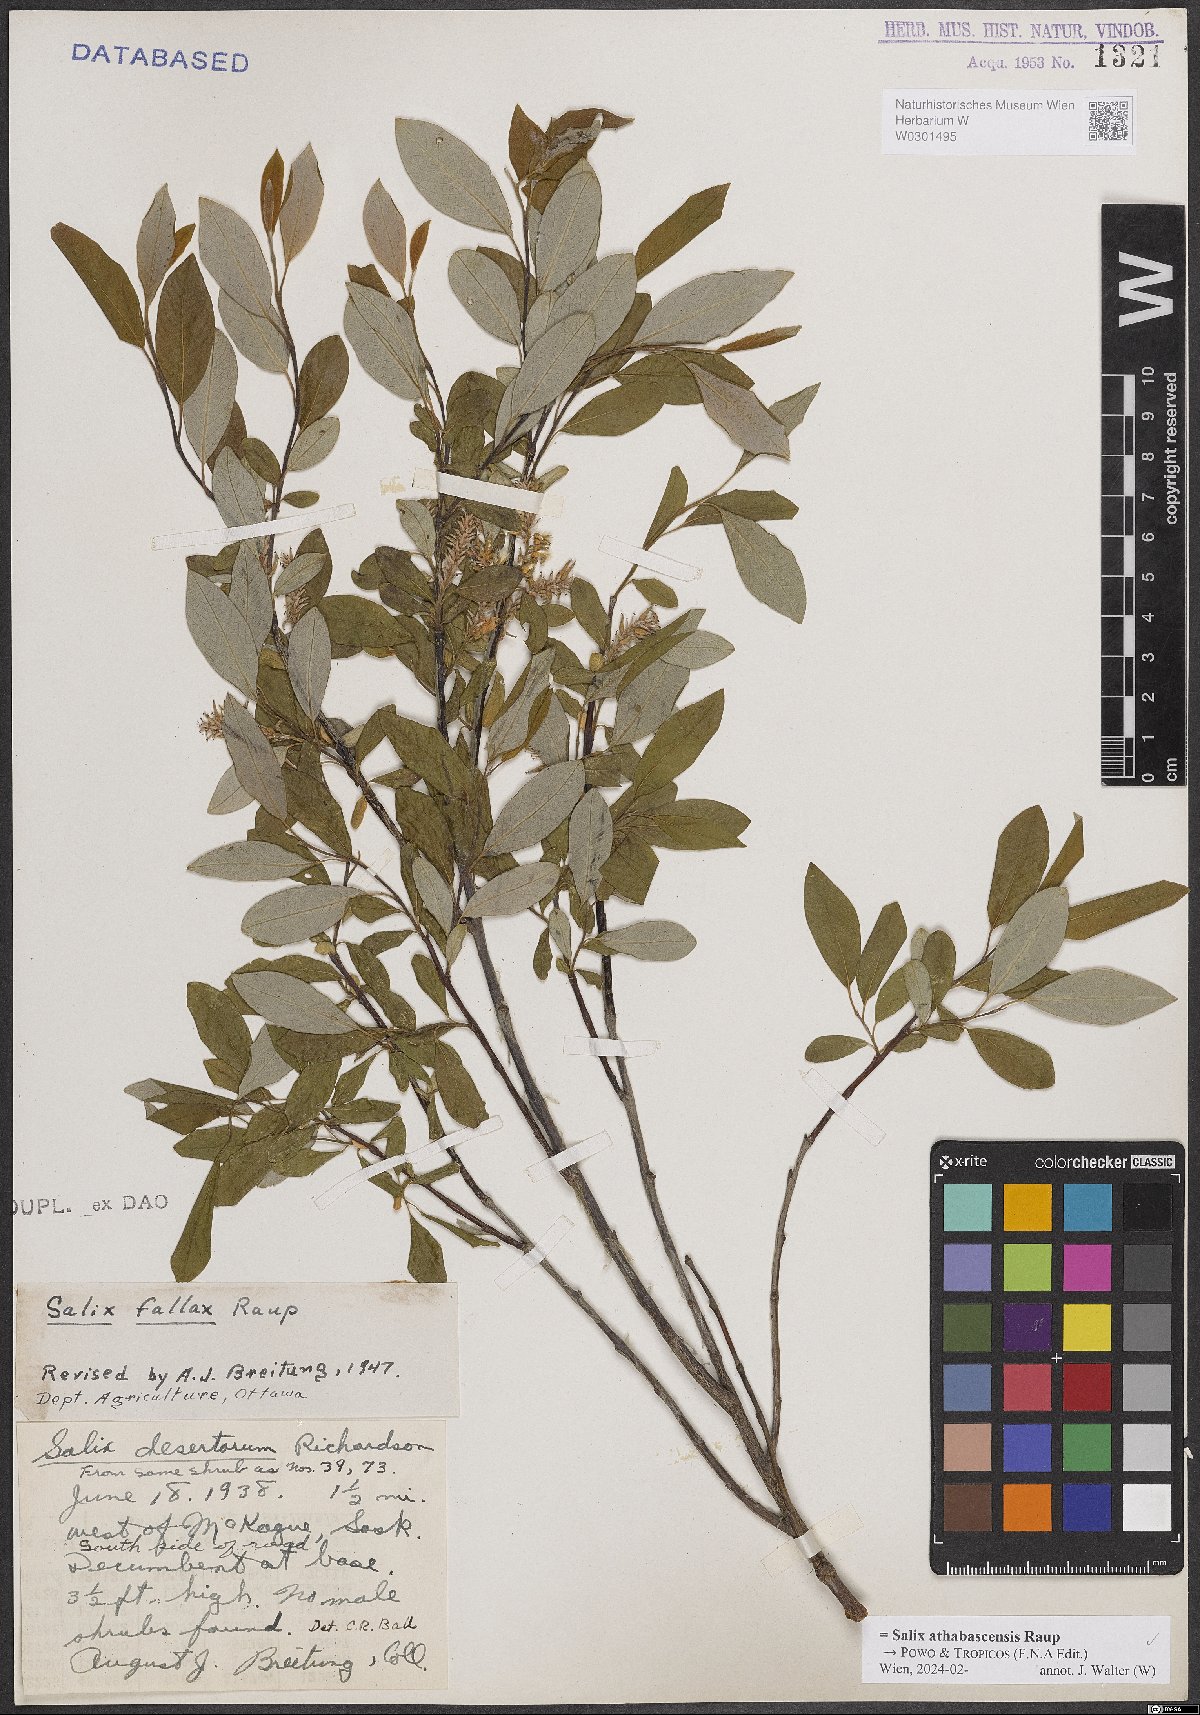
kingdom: Plantae
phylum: Tracheophyta
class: Magnoliopsida
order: Malpighiales
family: Salicaceae
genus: Salix
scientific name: Salix athabascensis
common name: Athabasca willow
